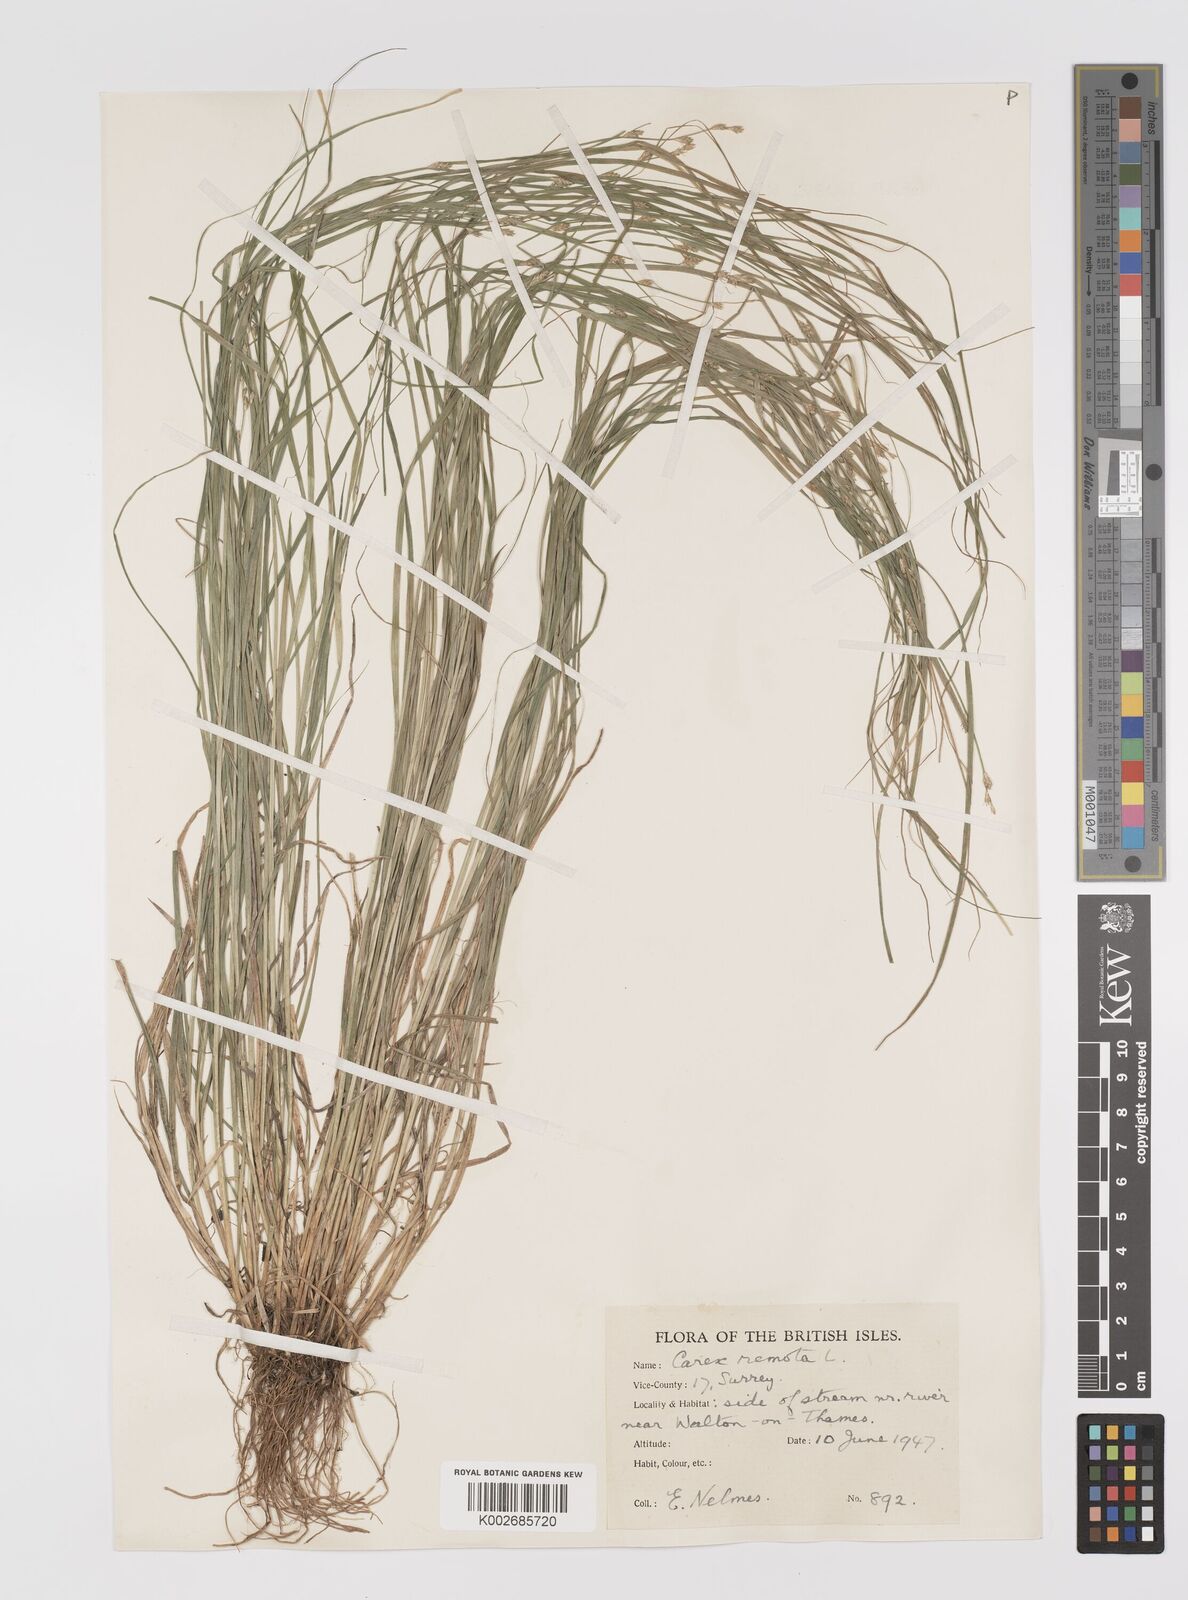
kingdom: Plantae
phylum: Tracheophyta
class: Liliopsida
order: Poales
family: Cyperaceae
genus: Carex
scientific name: Carex remota
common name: Remote sedge
